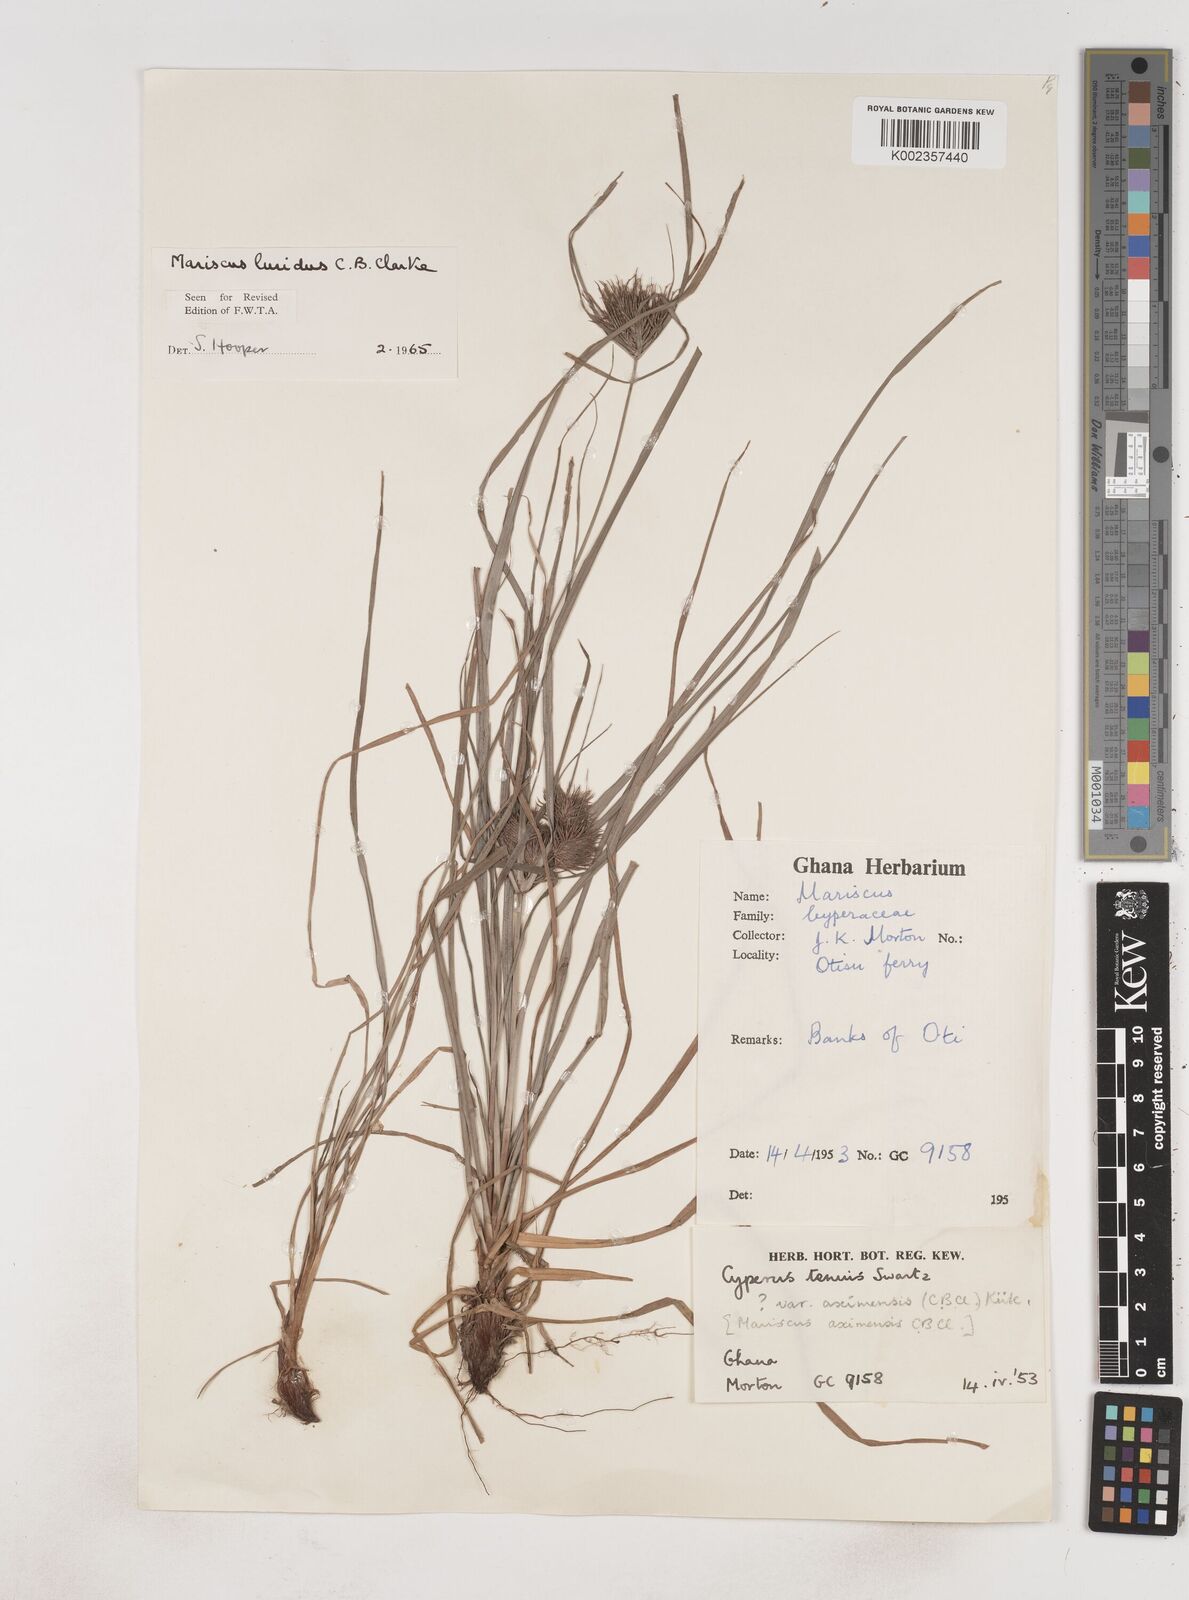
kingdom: Plantae
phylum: Tracheophyta
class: Liliopsida
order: Poales
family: Cyperaceae
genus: Cyperus
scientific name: Cyperus tenuis
